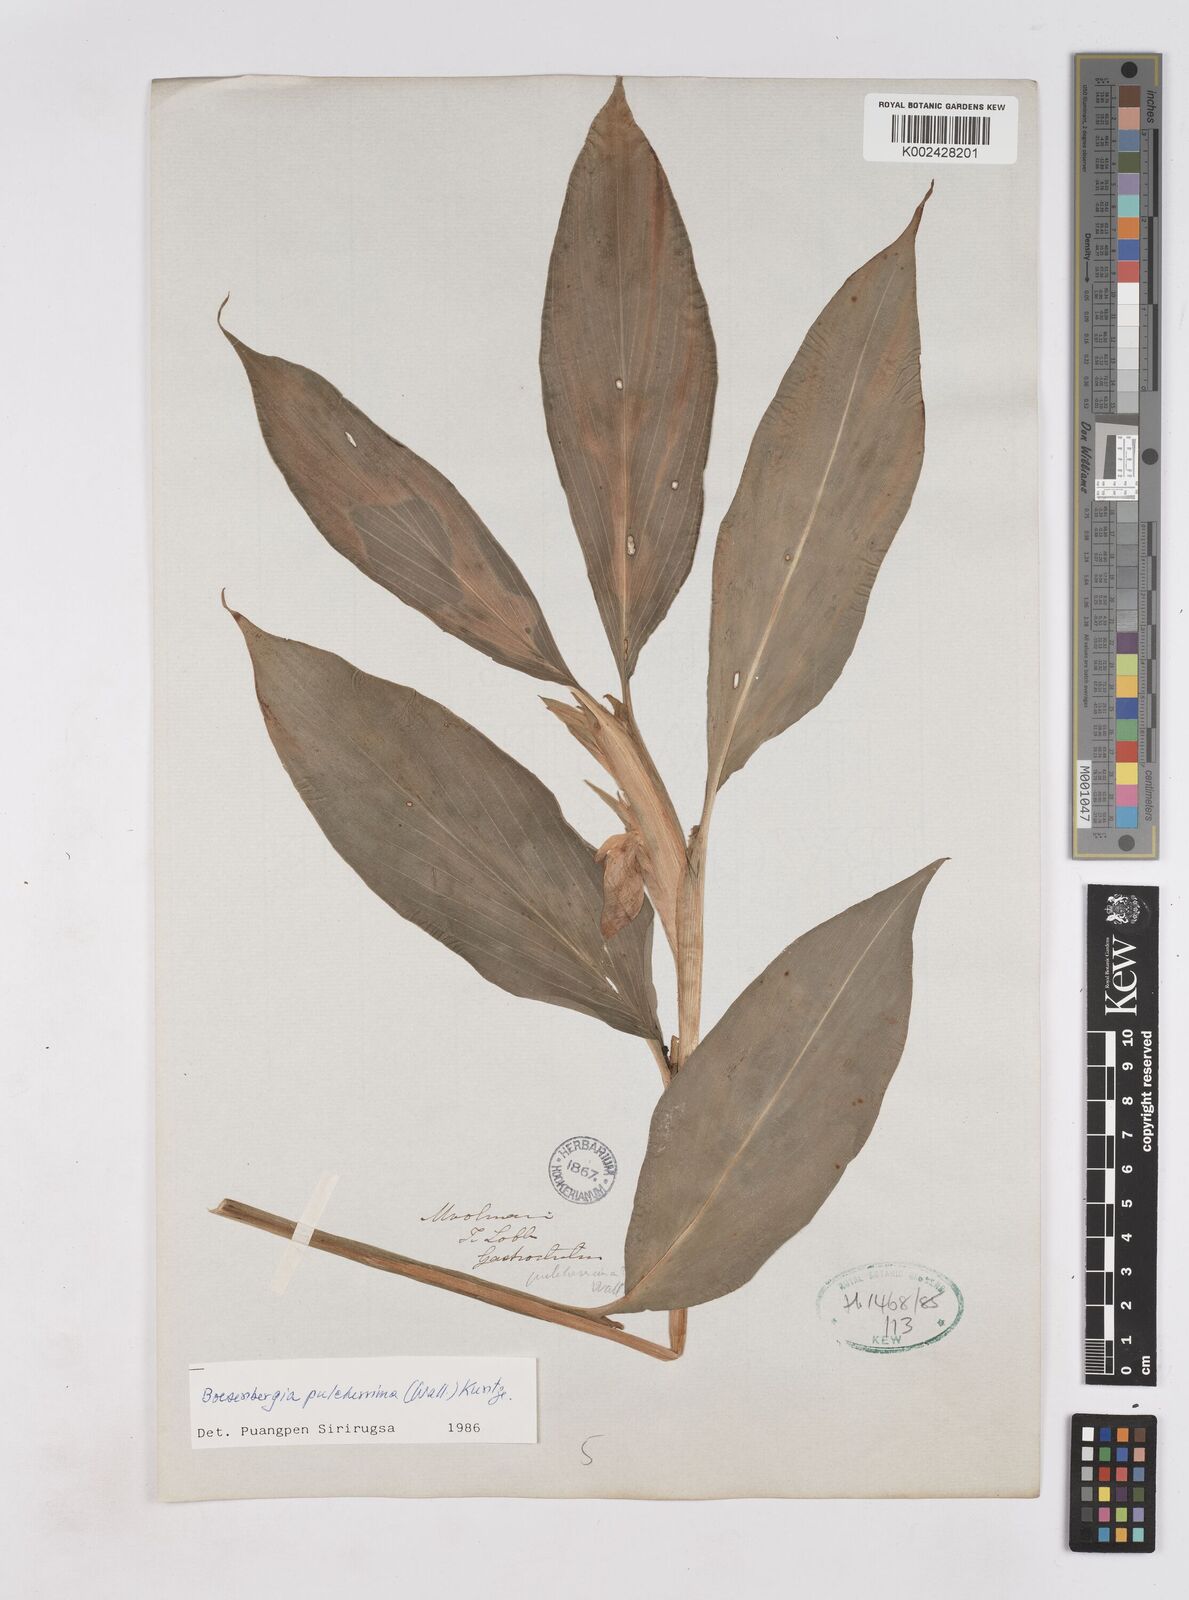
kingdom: Plantae
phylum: Tracheophyta
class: Liliopsida
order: Zingiberales
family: Zingiberaceae
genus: Boesenbergia
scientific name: Boesenbergia pulcherrima
